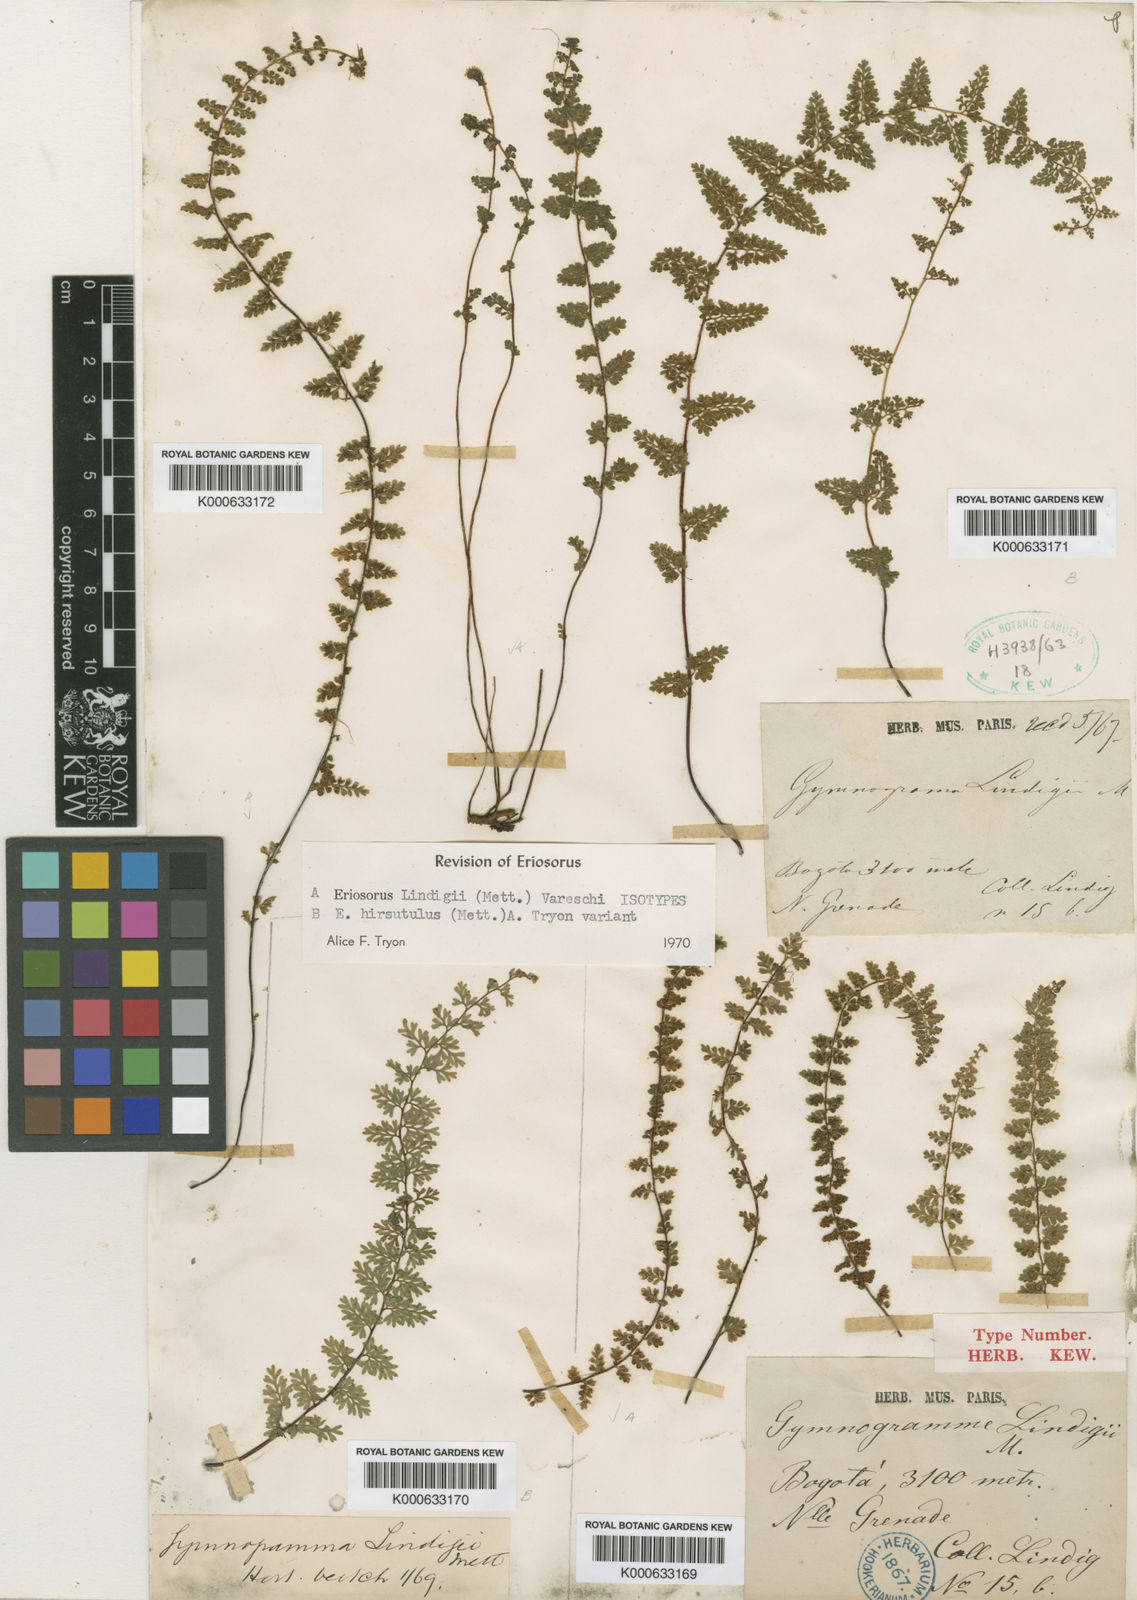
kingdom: Plantae
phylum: Tracheophyta
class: Polypodiopsida
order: Polypodiales
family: Pteridaceae
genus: Jamesonia
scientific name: Jamesonia lindigii
